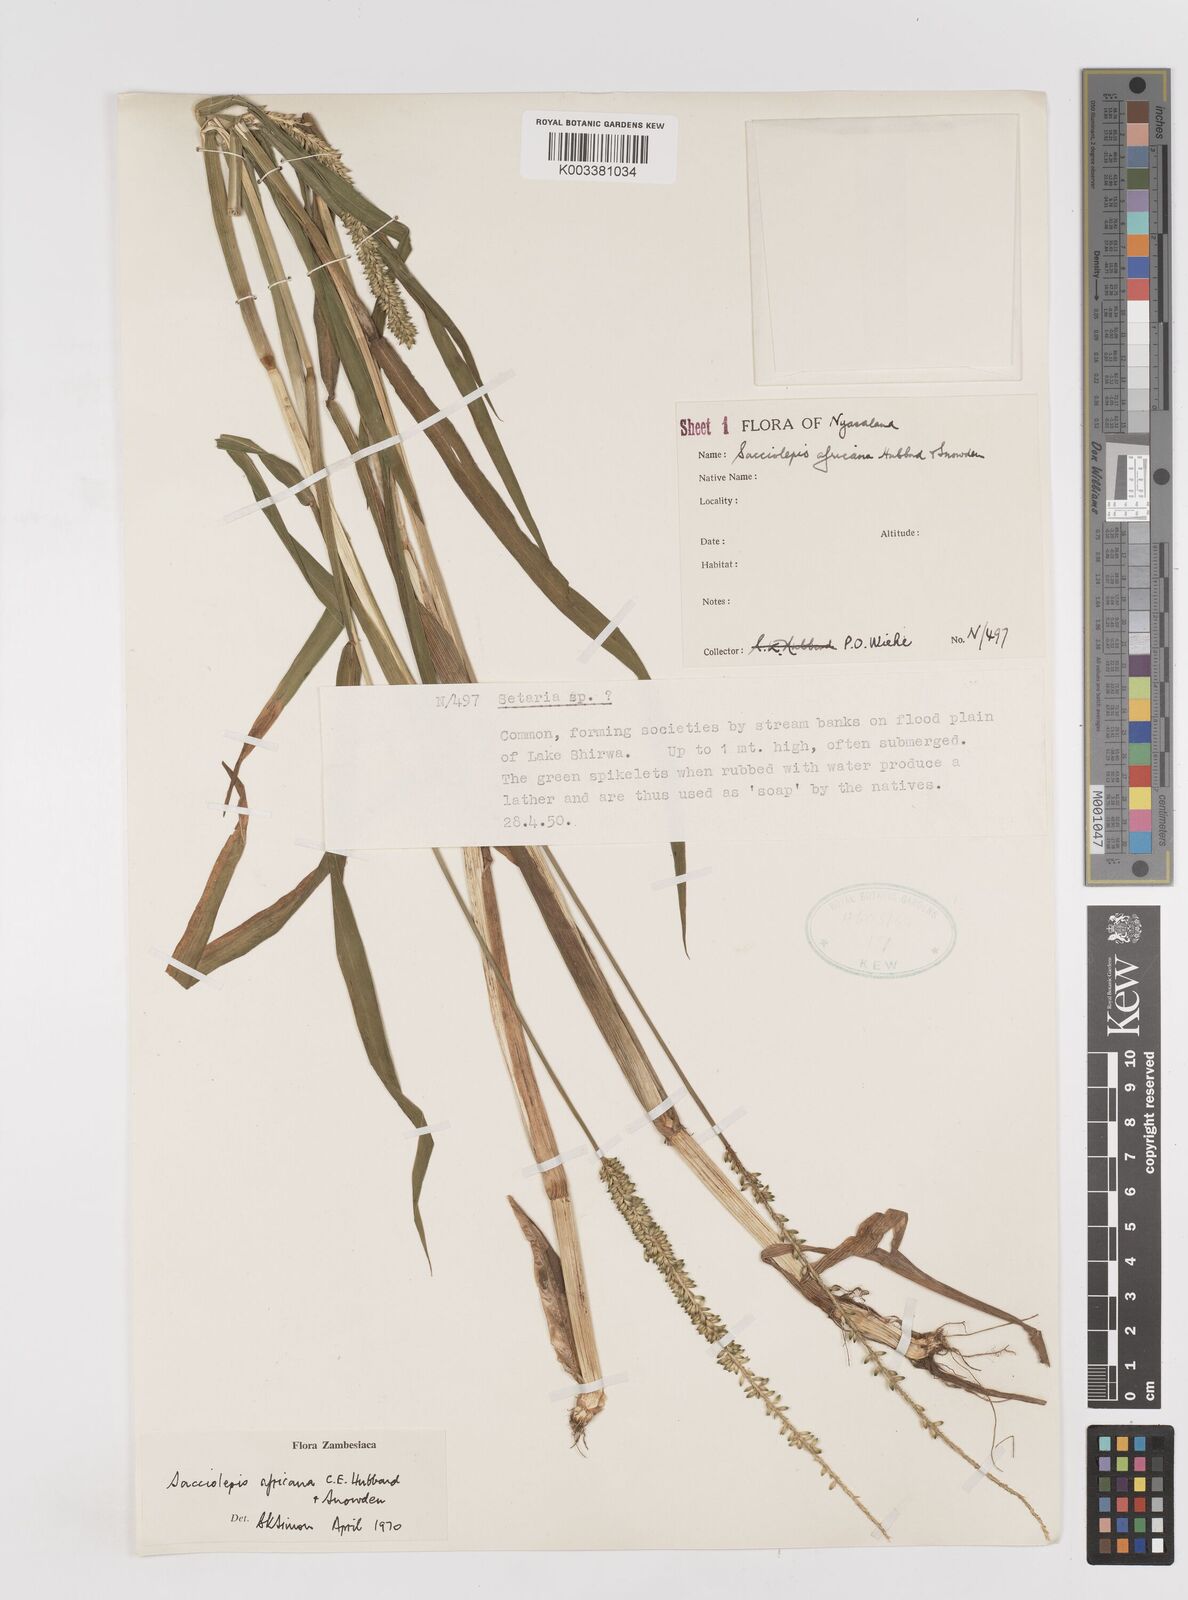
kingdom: Plantae
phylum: Tracheophyta
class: Liliopsida
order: Poales
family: Poaceae
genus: Sacciolepis
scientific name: Sacciolepis africana
